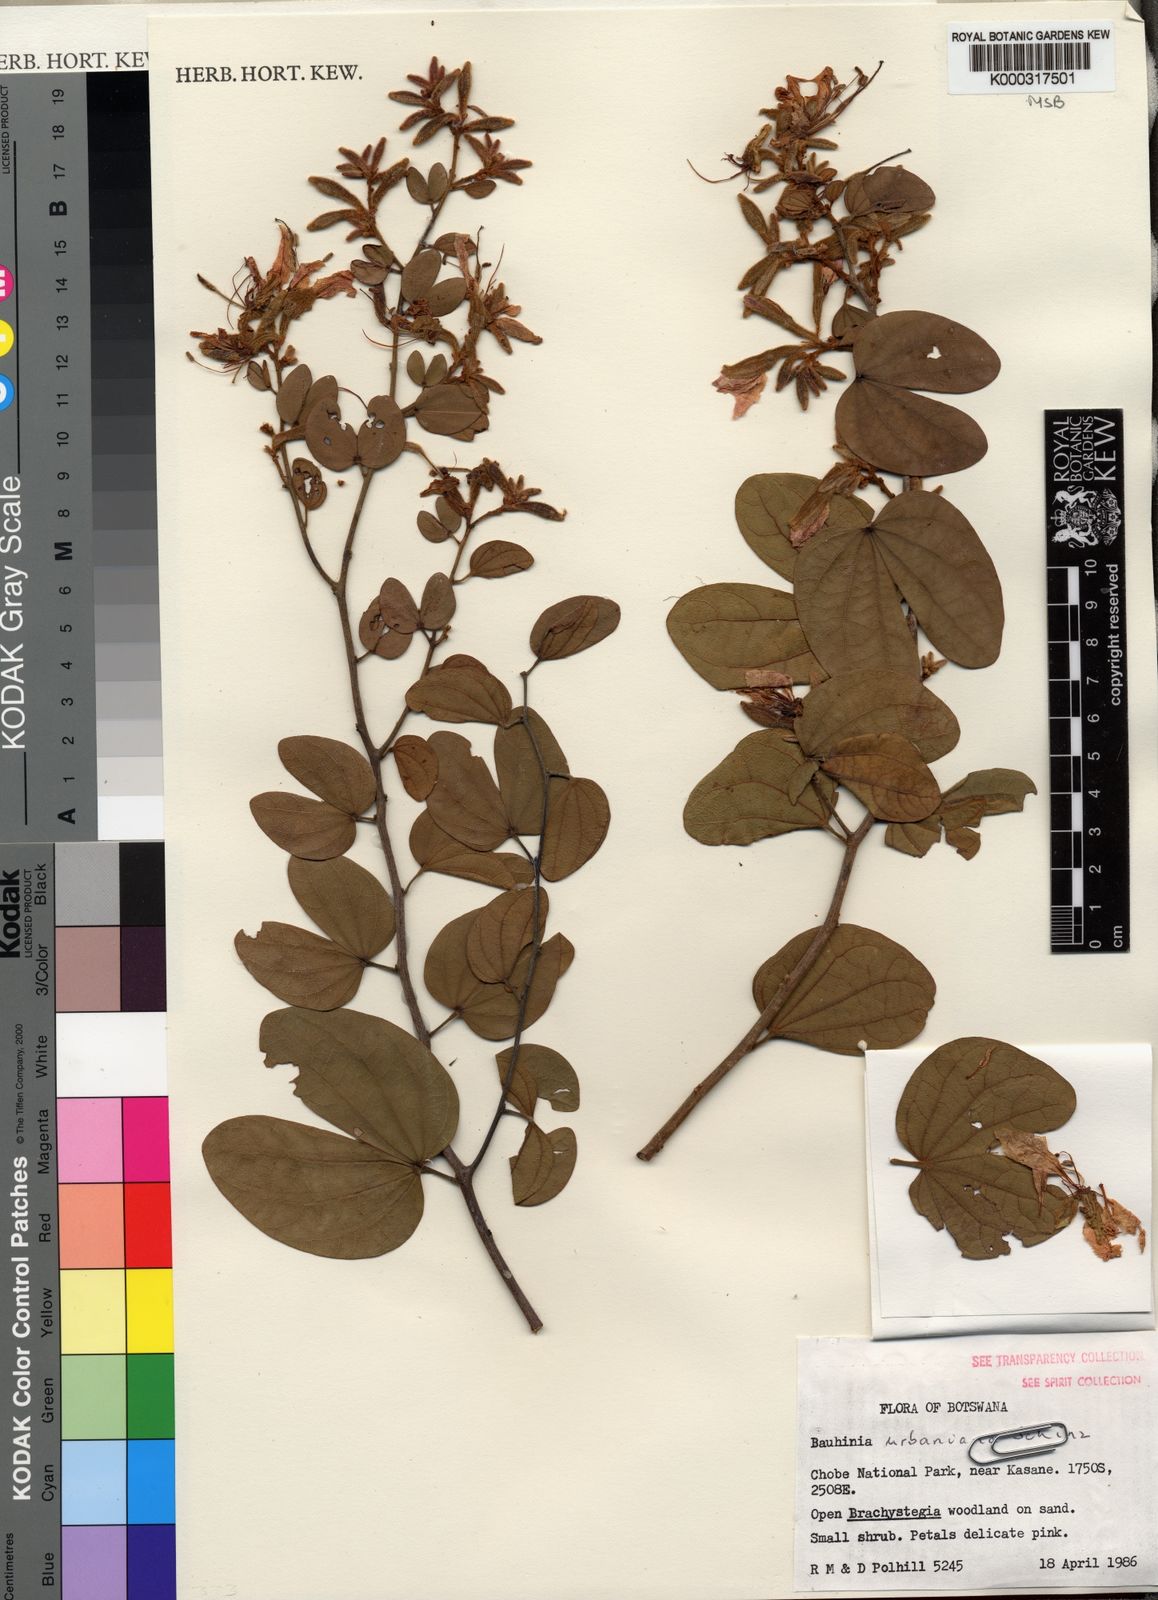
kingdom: Plantae
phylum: Tracheophyta
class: Magnoliopsida
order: Fabales
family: Fabaceae
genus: Bauhinia
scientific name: Bauhinia urbaniana
